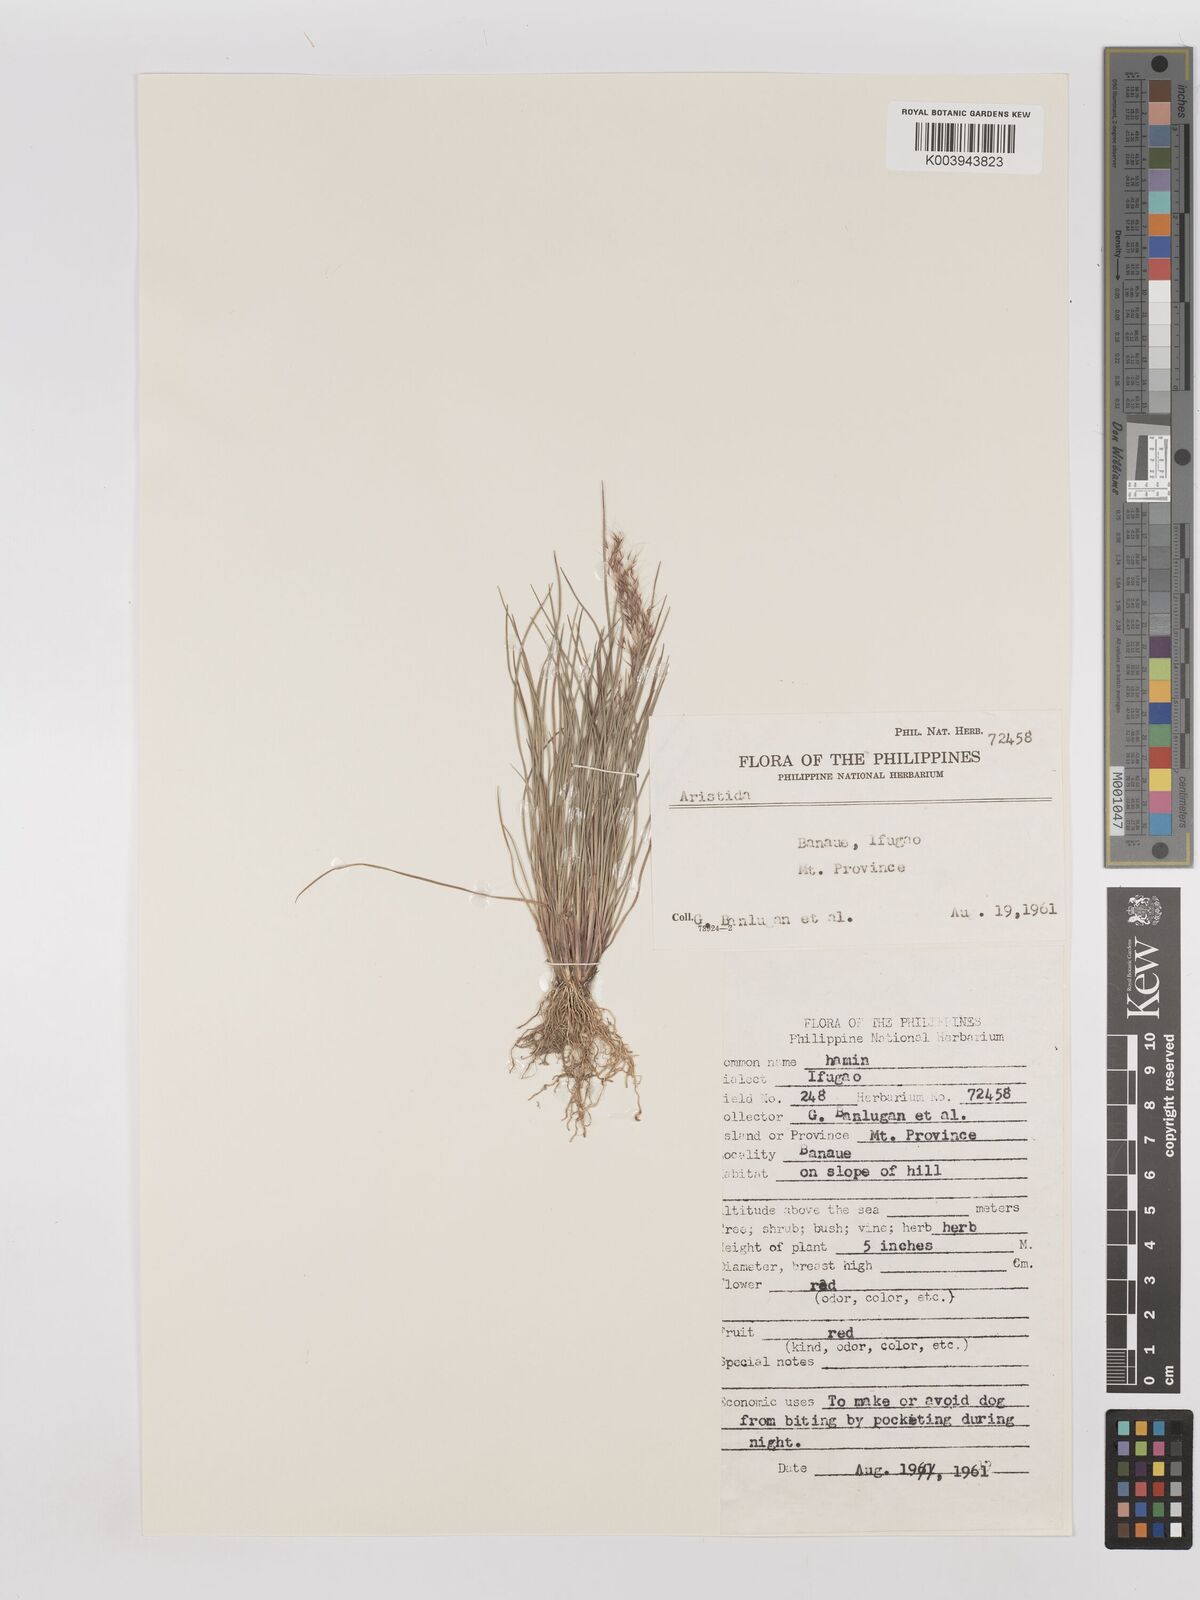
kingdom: Plantae
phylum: Tracheophyta
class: Liliopsida
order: Poales
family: Poaceae
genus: Aristida
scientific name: Aristida cumingiana
